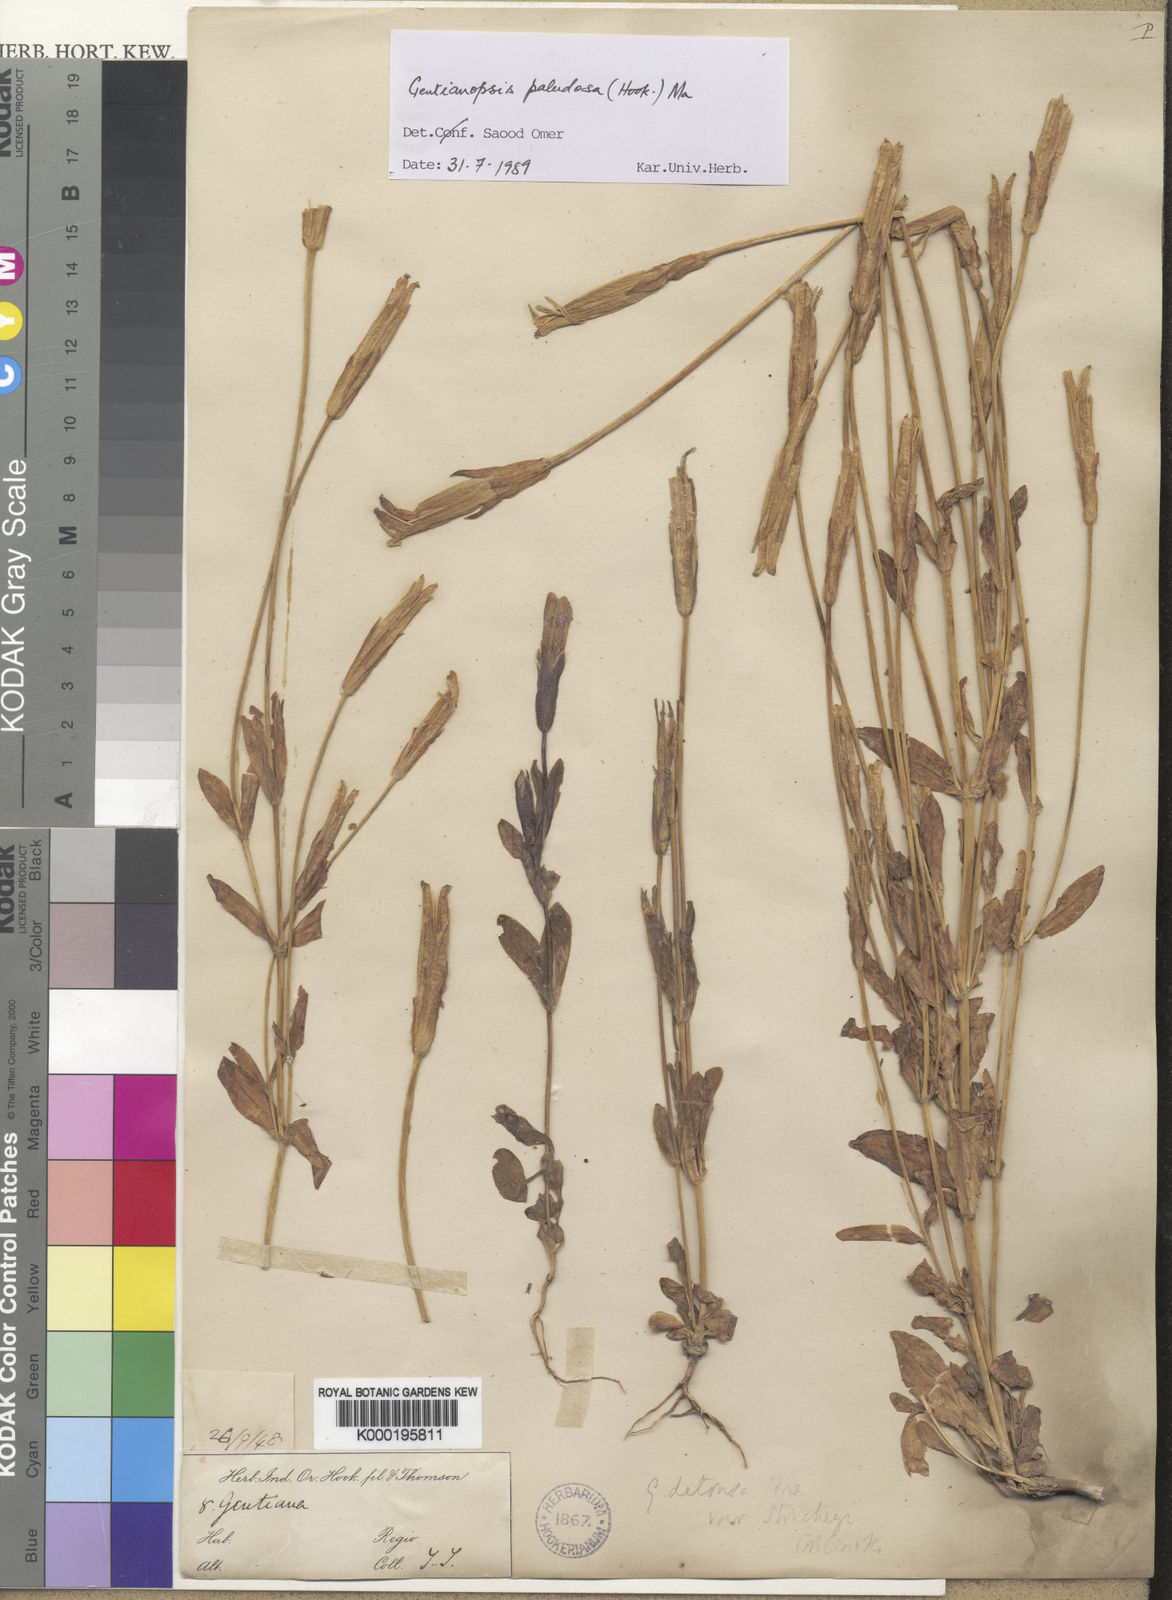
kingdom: Plantae
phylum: Tracheophyta
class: Magnoliopsida
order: Gentianales
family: Gentianaceae
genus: Gentianopsis
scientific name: Gentianopsis paludosa
